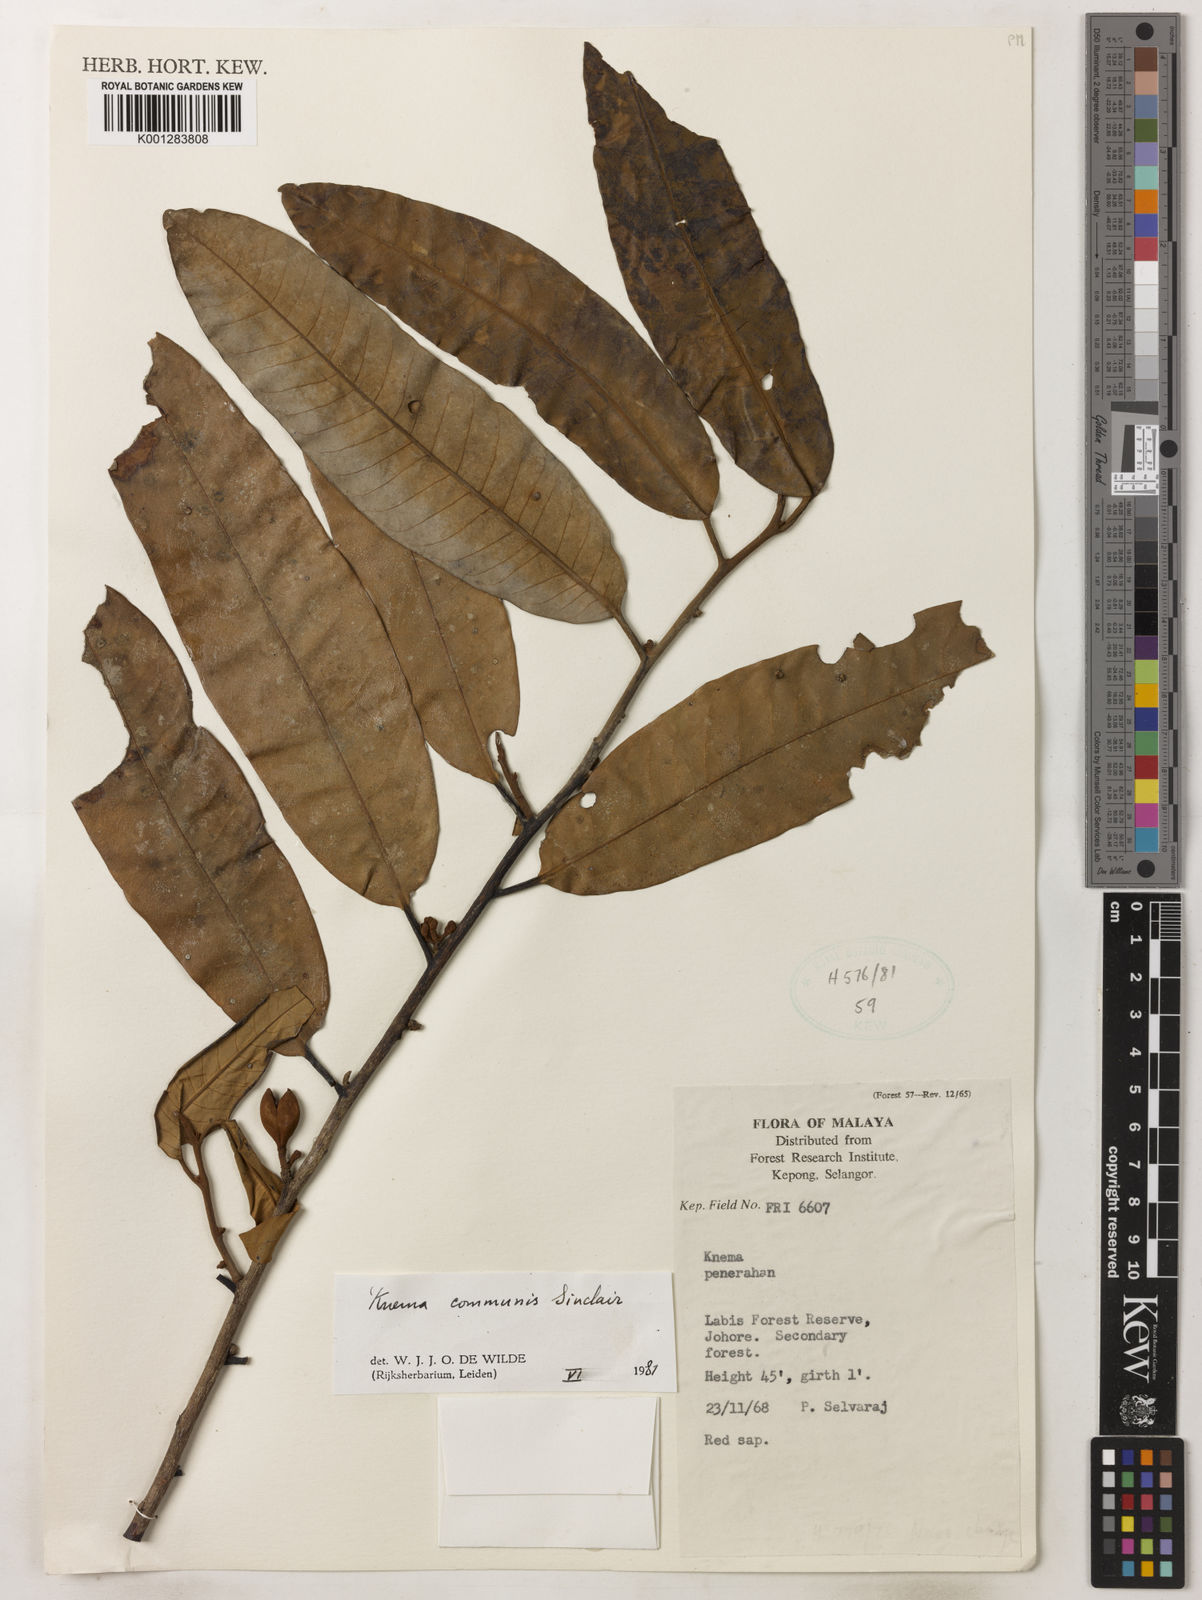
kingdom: Plantae
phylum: Tracheophyta
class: Magnoliopsida
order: Magnoliales
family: Myristicaceae
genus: Knema
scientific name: Knema communis
